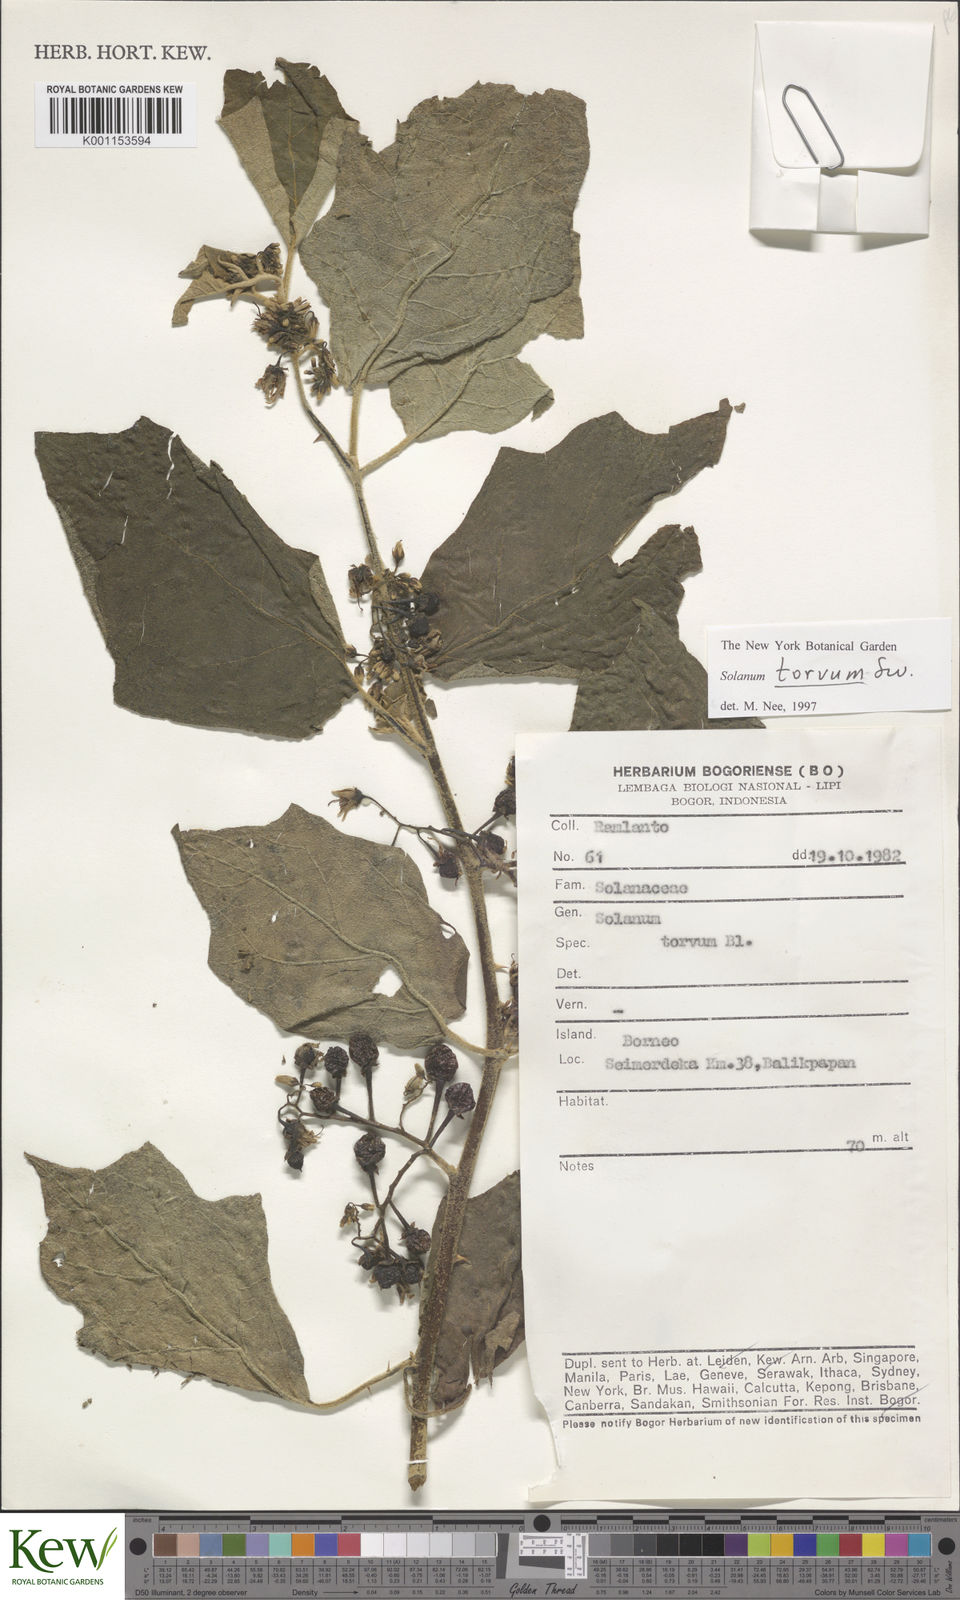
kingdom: Plantae
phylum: Tracheophyta
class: Magnoliopsida
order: Solanales
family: Solanaceae
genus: Solanum
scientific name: Solanum torvum
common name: Turkey berry
